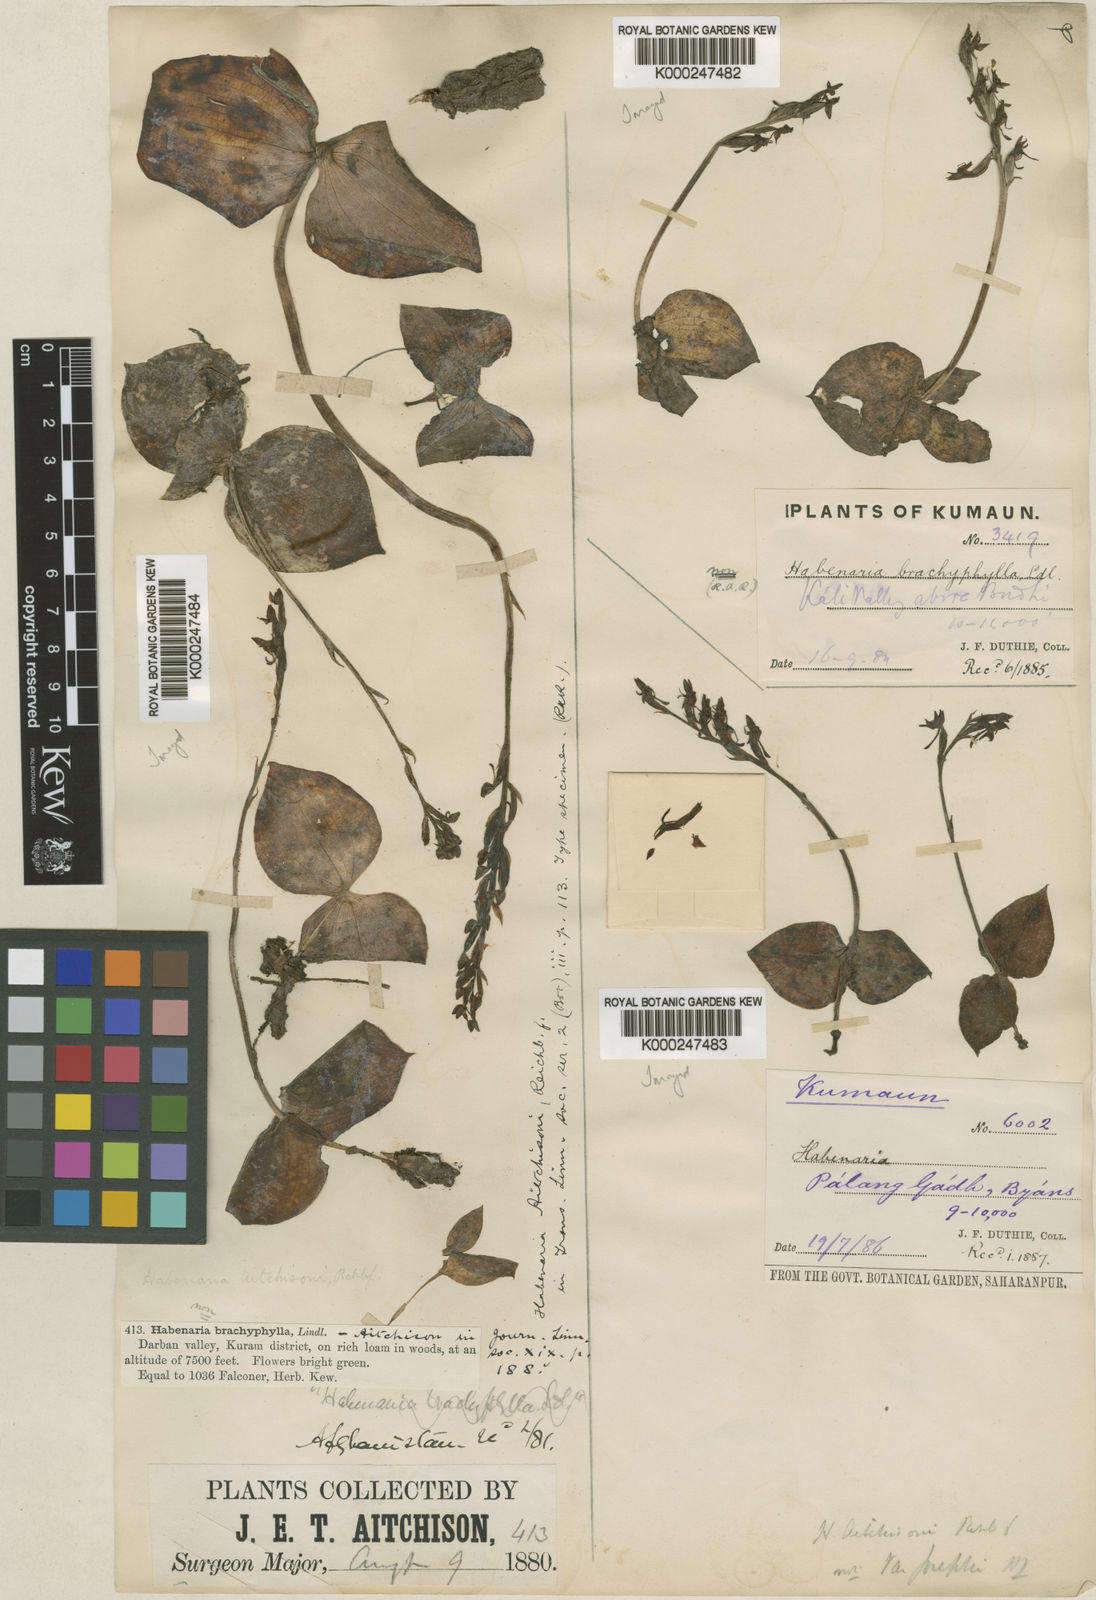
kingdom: Plantae
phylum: Tracheophyta
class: Liliopsida
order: Asparagales
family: Orchidaceae
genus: Habenaria
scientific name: Habenaria aitchisonii
